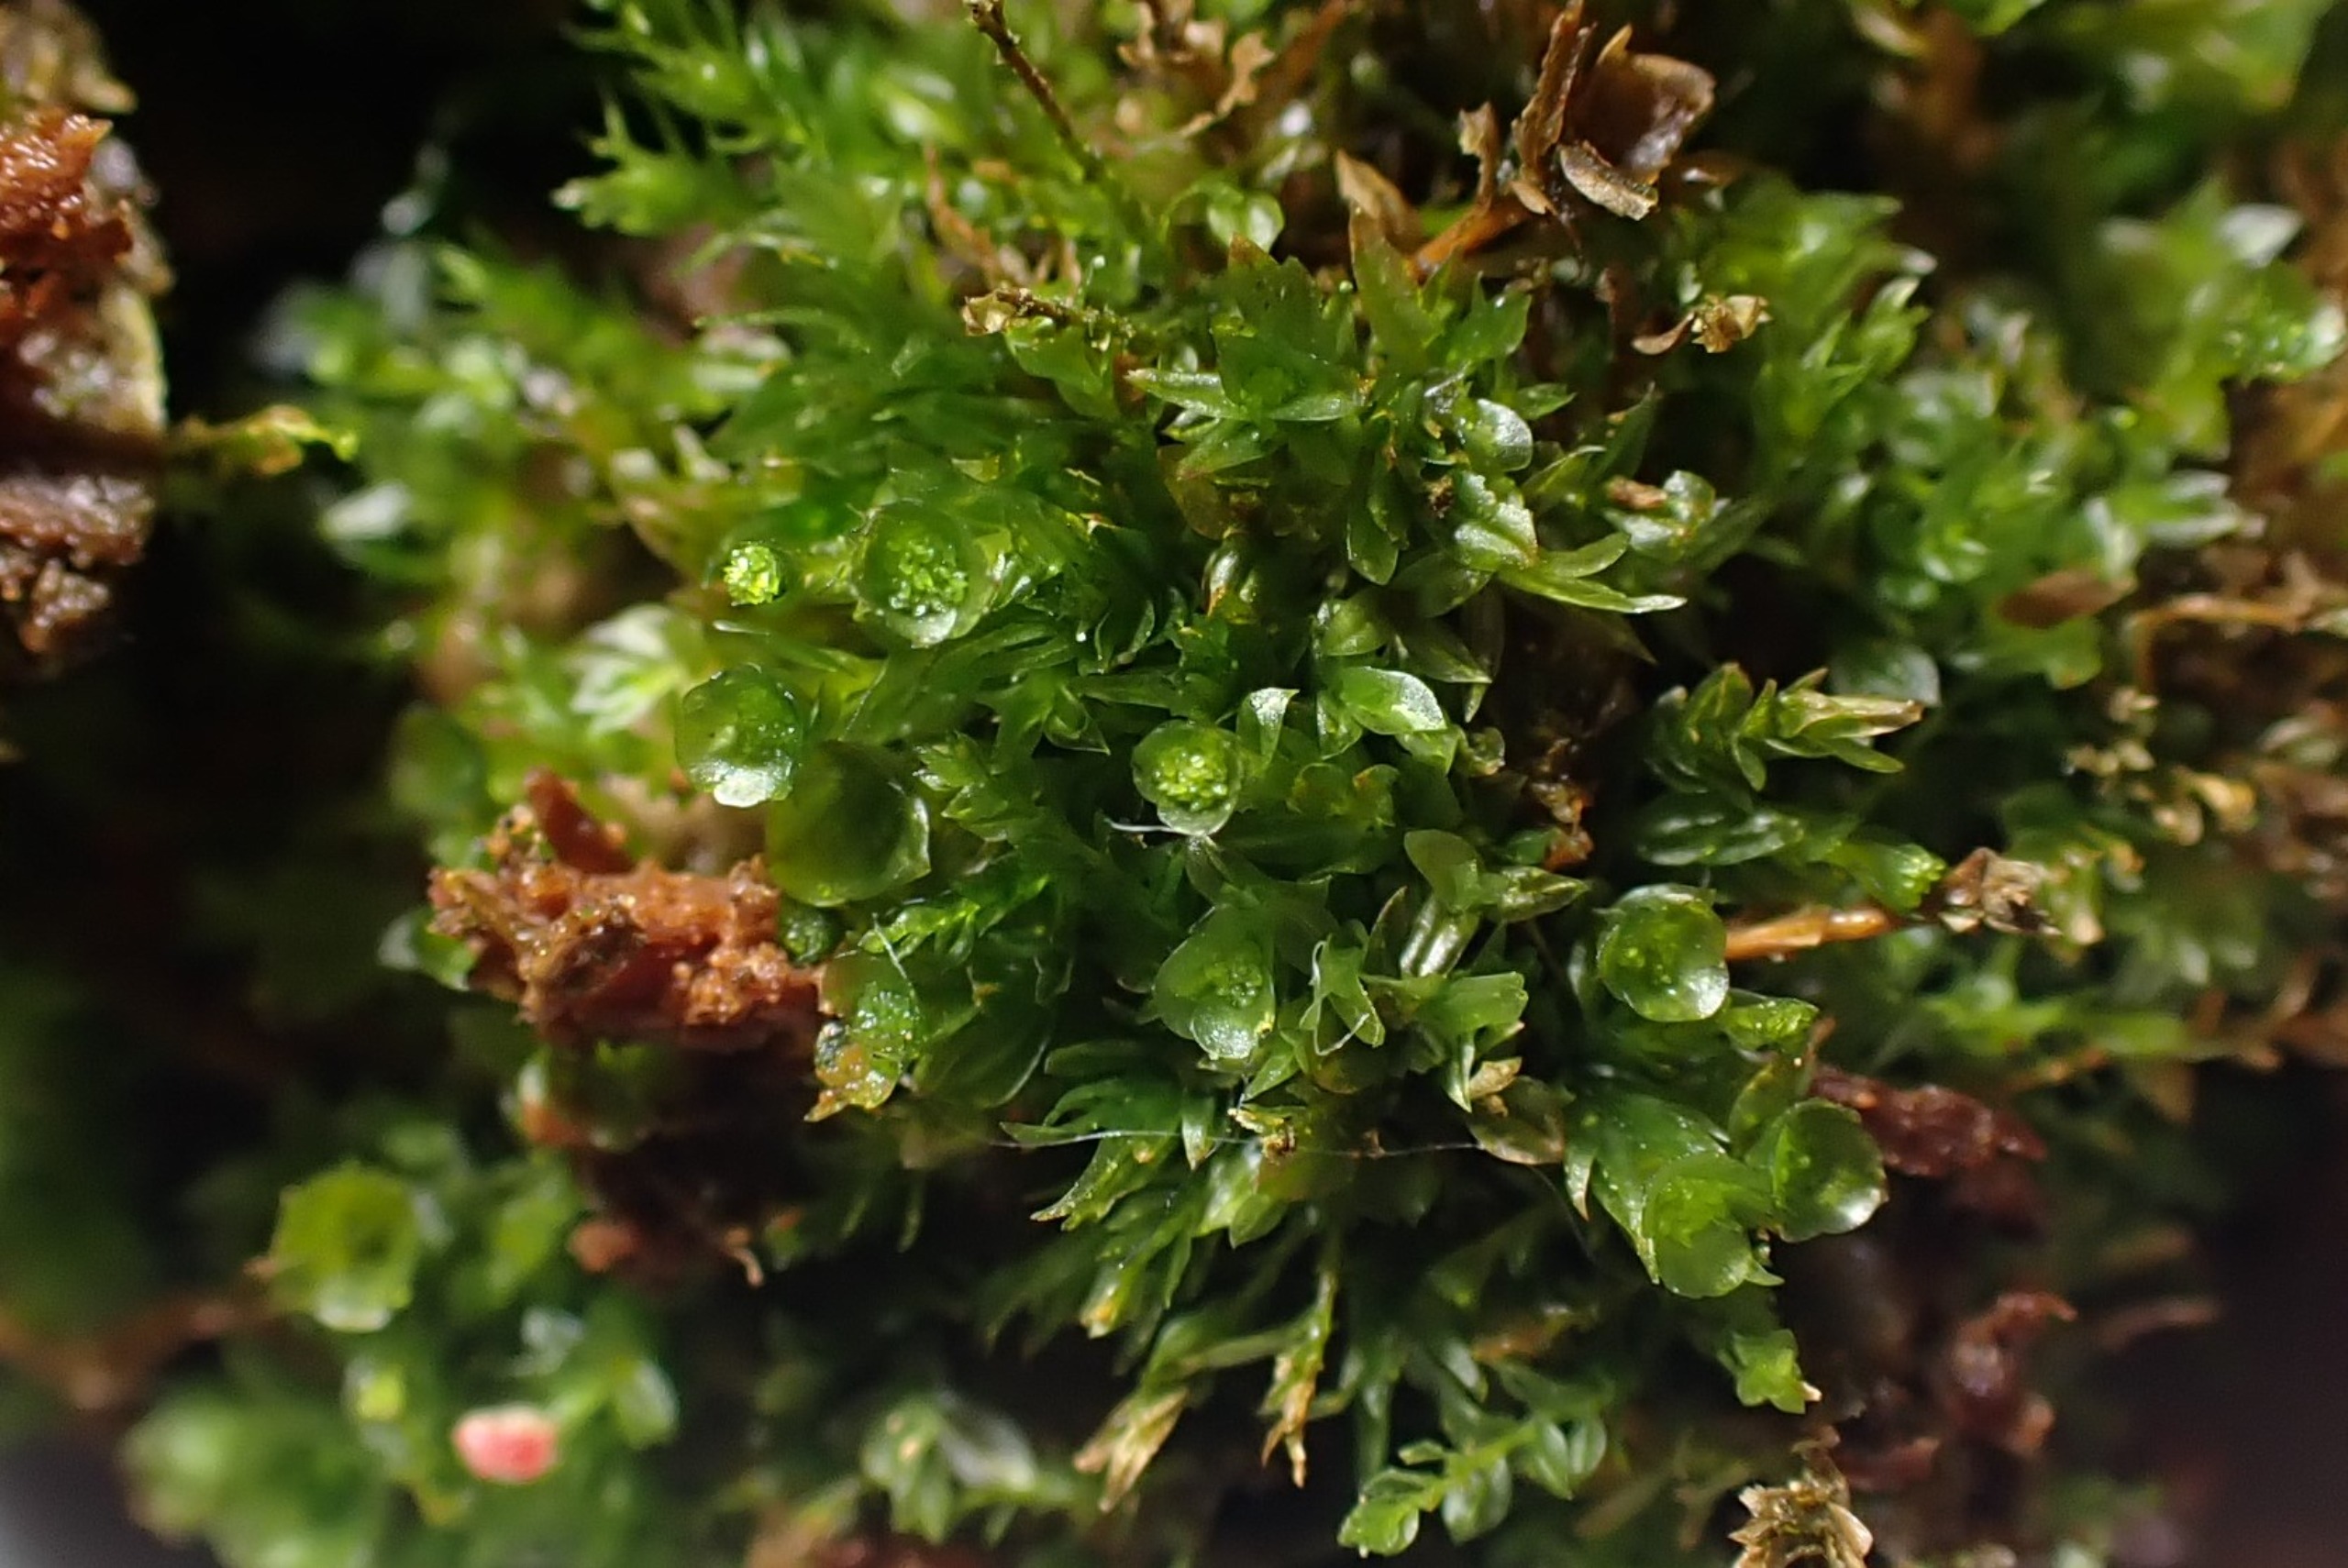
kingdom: Plantae
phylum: Bryophyta
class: Polytrichopsida
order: Tetraphidales
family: Tetraphidaceae
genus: Tetraphis
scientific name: Tetraphis pellucida
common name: Almindelig firtand
